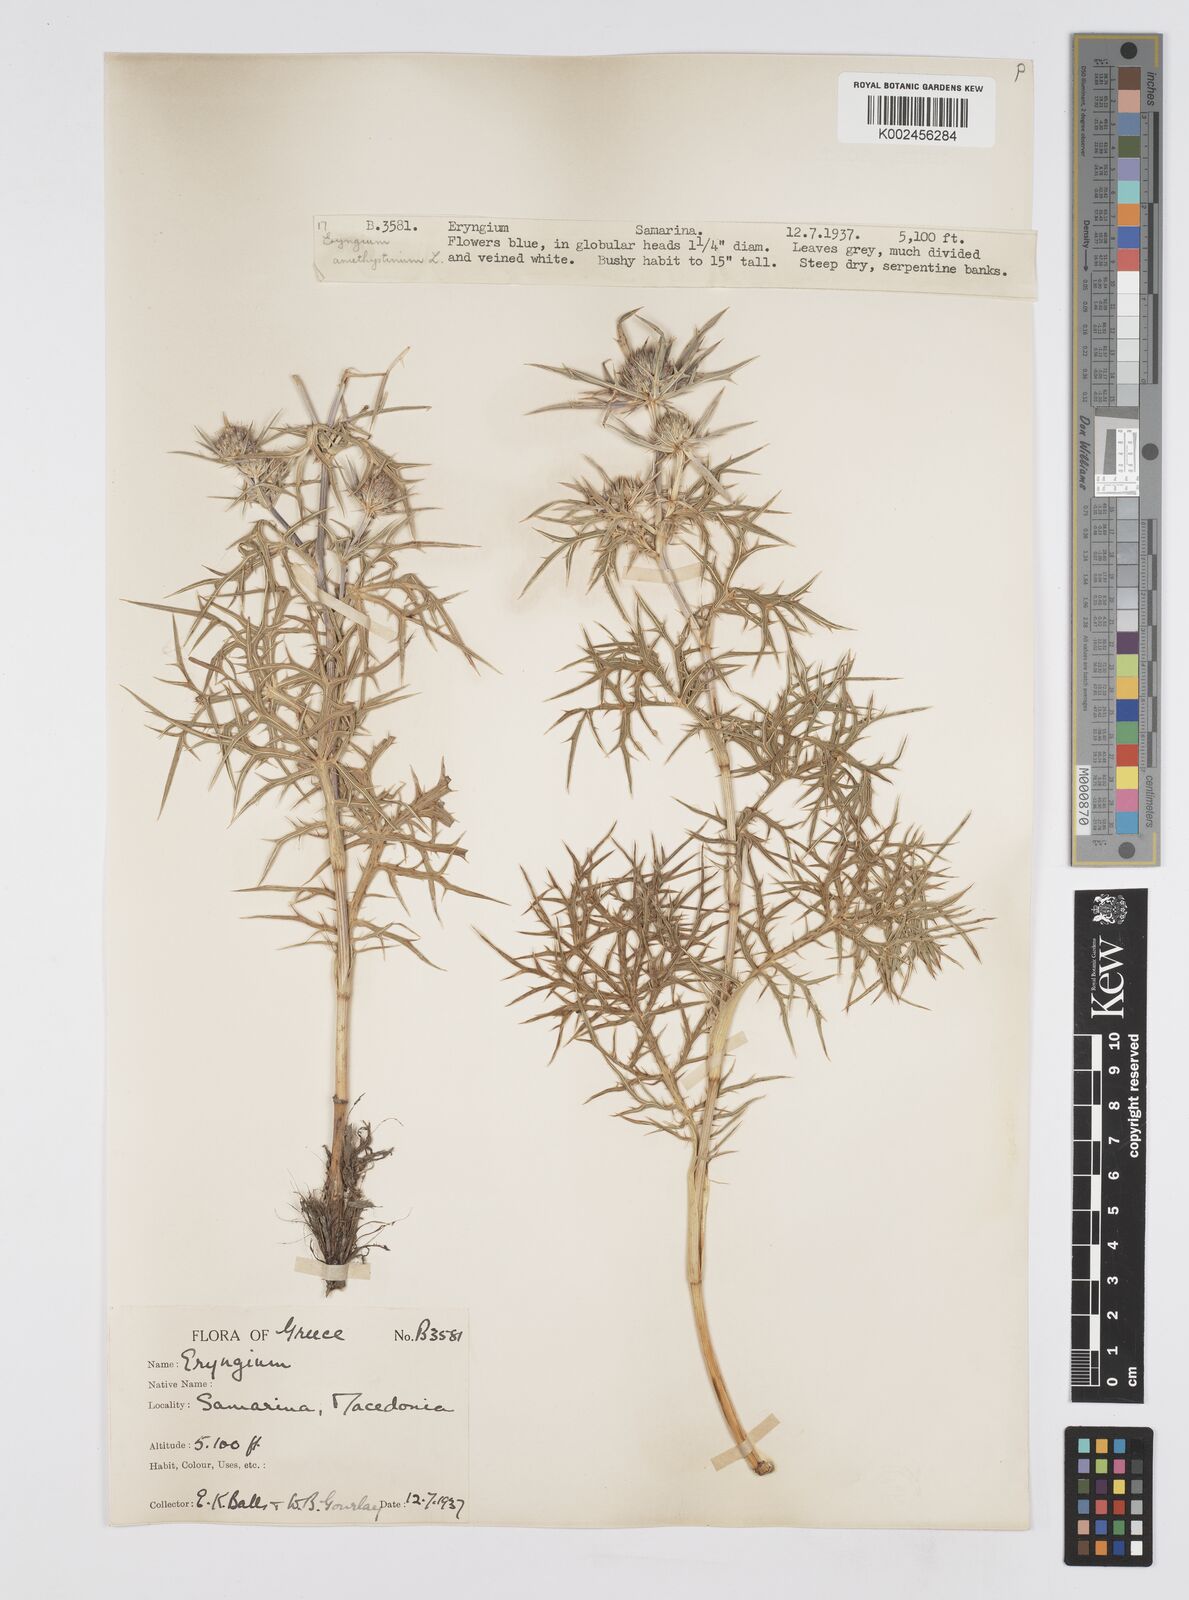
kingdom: Plantae
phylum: Tracheophyta
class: Magnoliopsida
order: Apiales
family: Apiaceae
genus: Eryngium
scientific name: Eryngium amethystinum
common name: Amethyst eryngo
